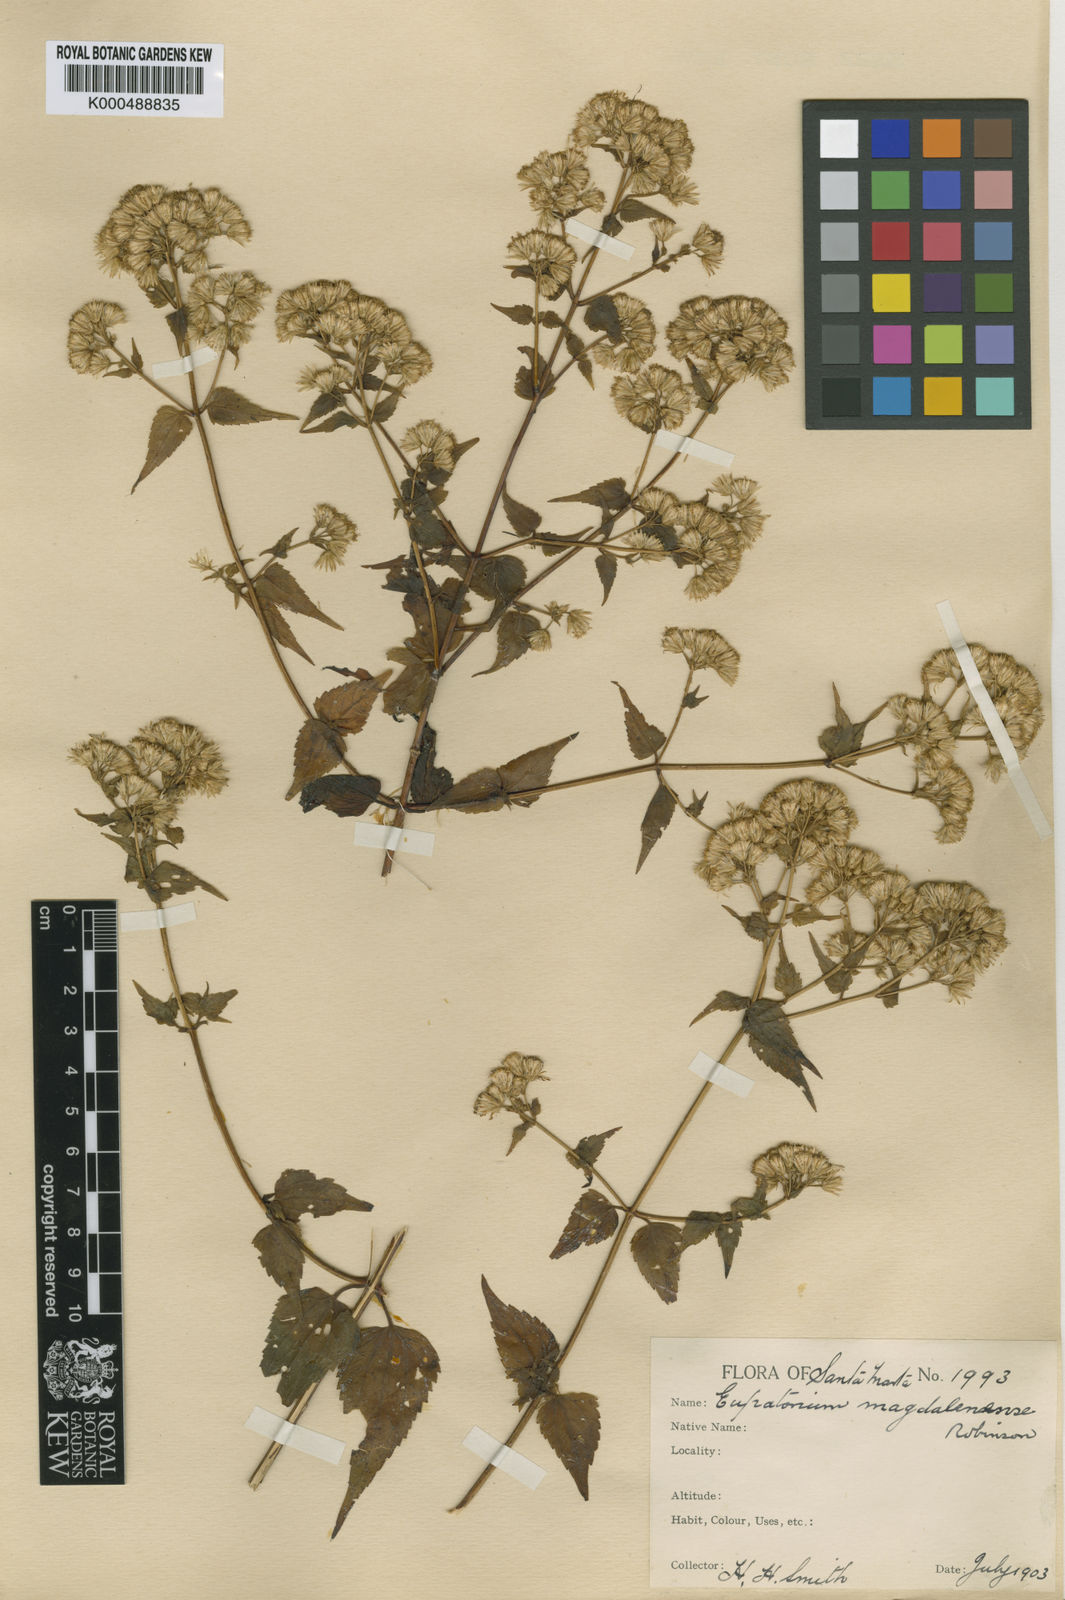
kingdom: Plantae
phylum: Tracheophyta
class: Magnoliopsida
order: Asterales
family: Asteraceae
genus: Fleischmannia
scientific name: Fleischmannia magdalenensis
